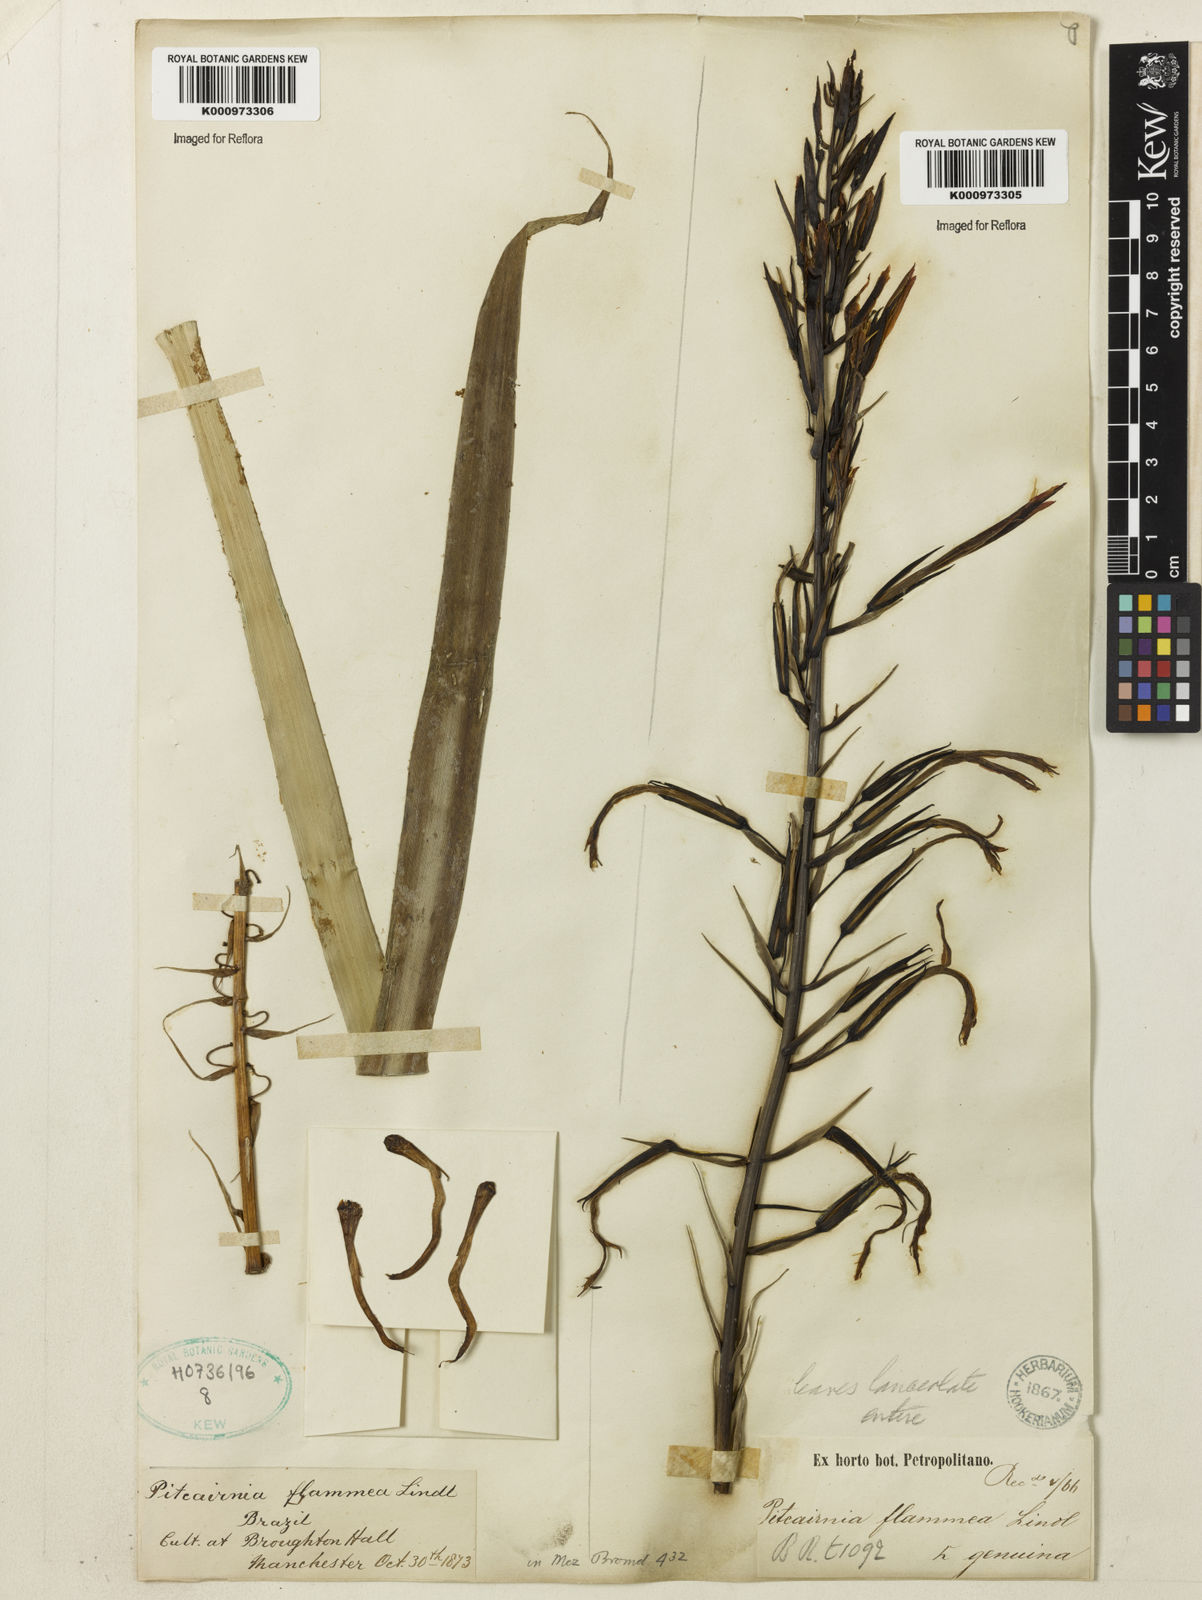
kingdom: Plantae
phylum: Tracheophyta
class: Liliopsida
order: Poales
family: Bromeliaceae
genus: Pitcairnia
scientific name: Pitcairnia flammea
